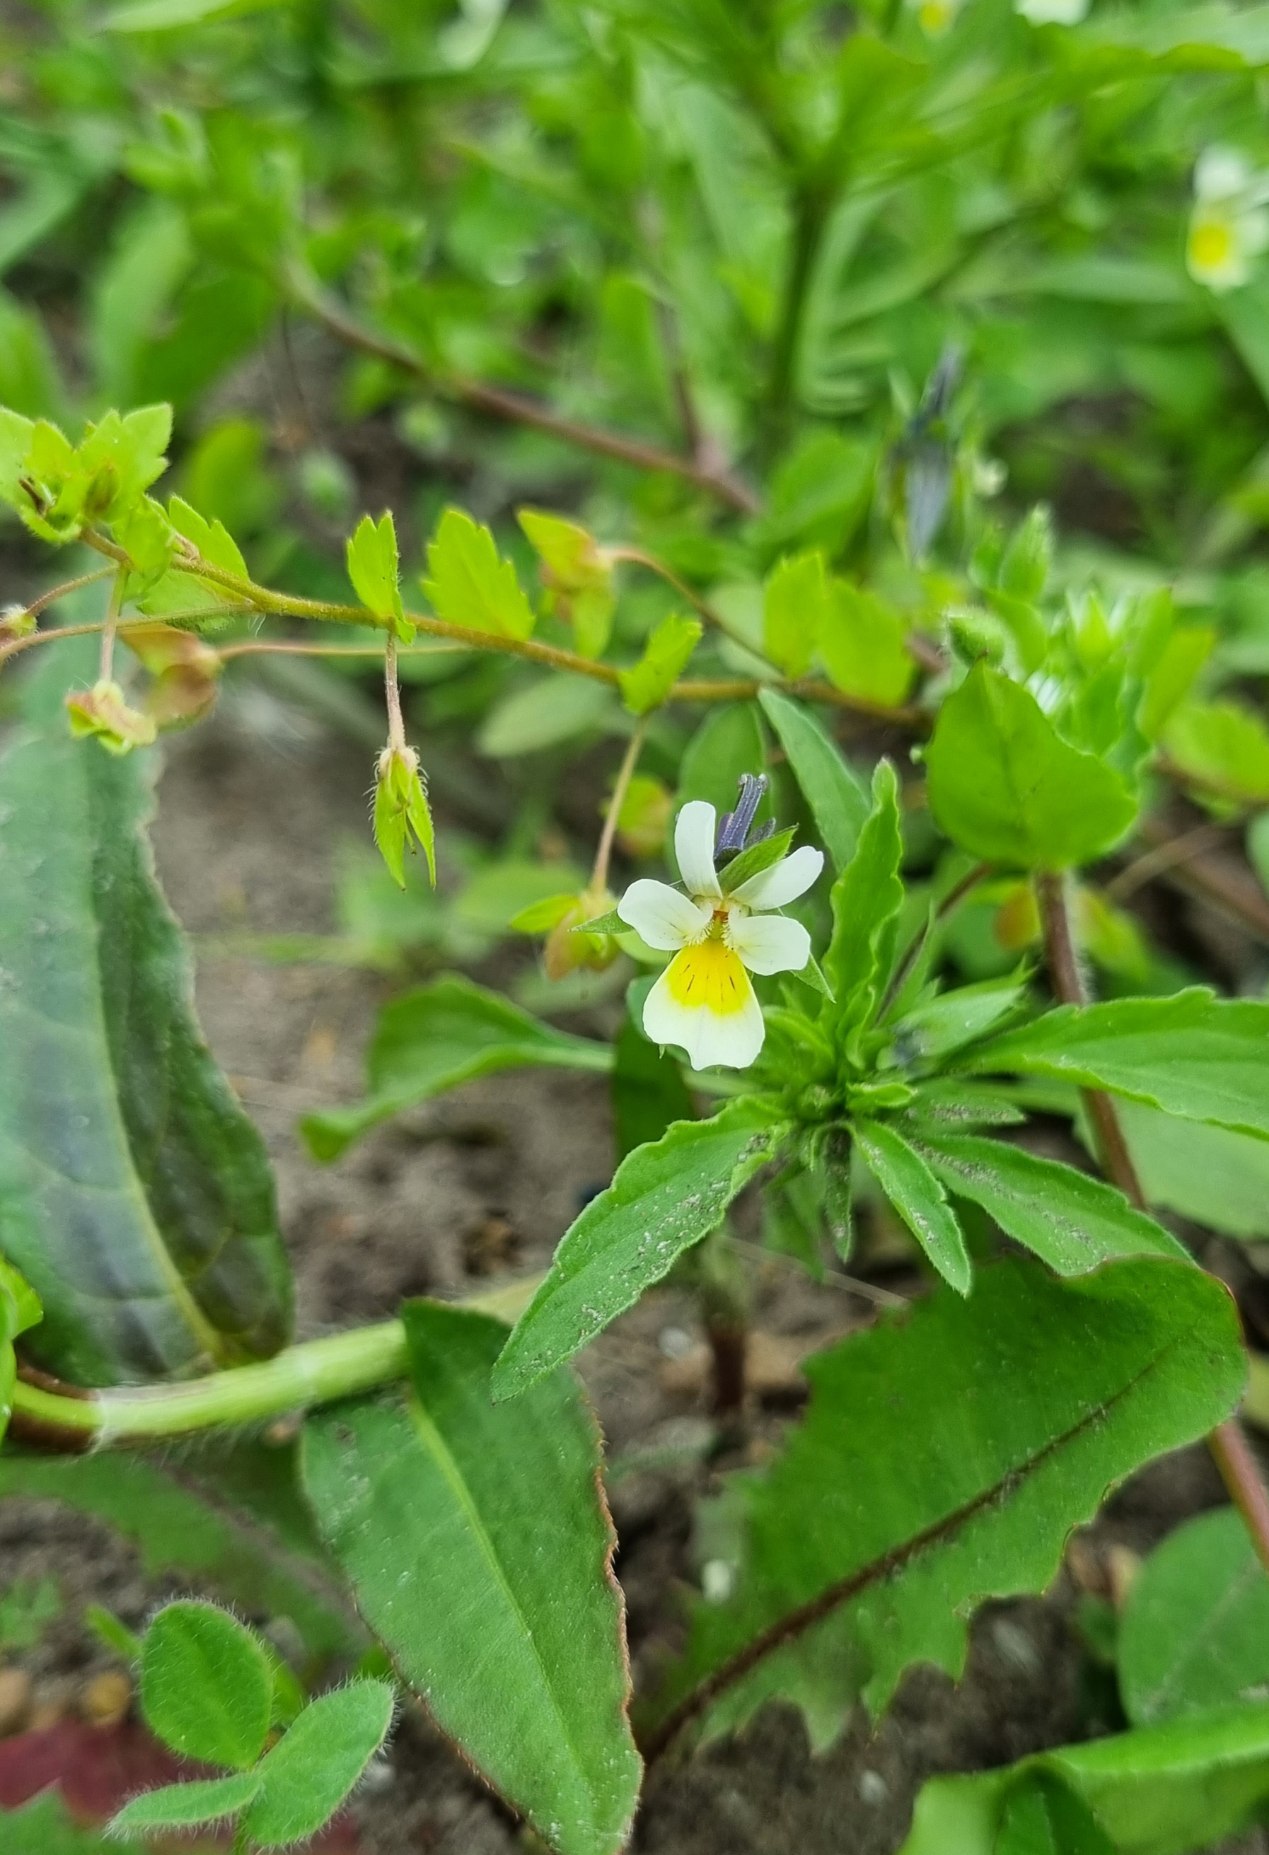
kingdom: Plantae
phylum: Tracheophyta
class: Magnoliopsida
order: Malpighiales
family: Violaceae
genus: Viola
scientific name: Viola arvensis
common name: Ager-stedmoderblomst
